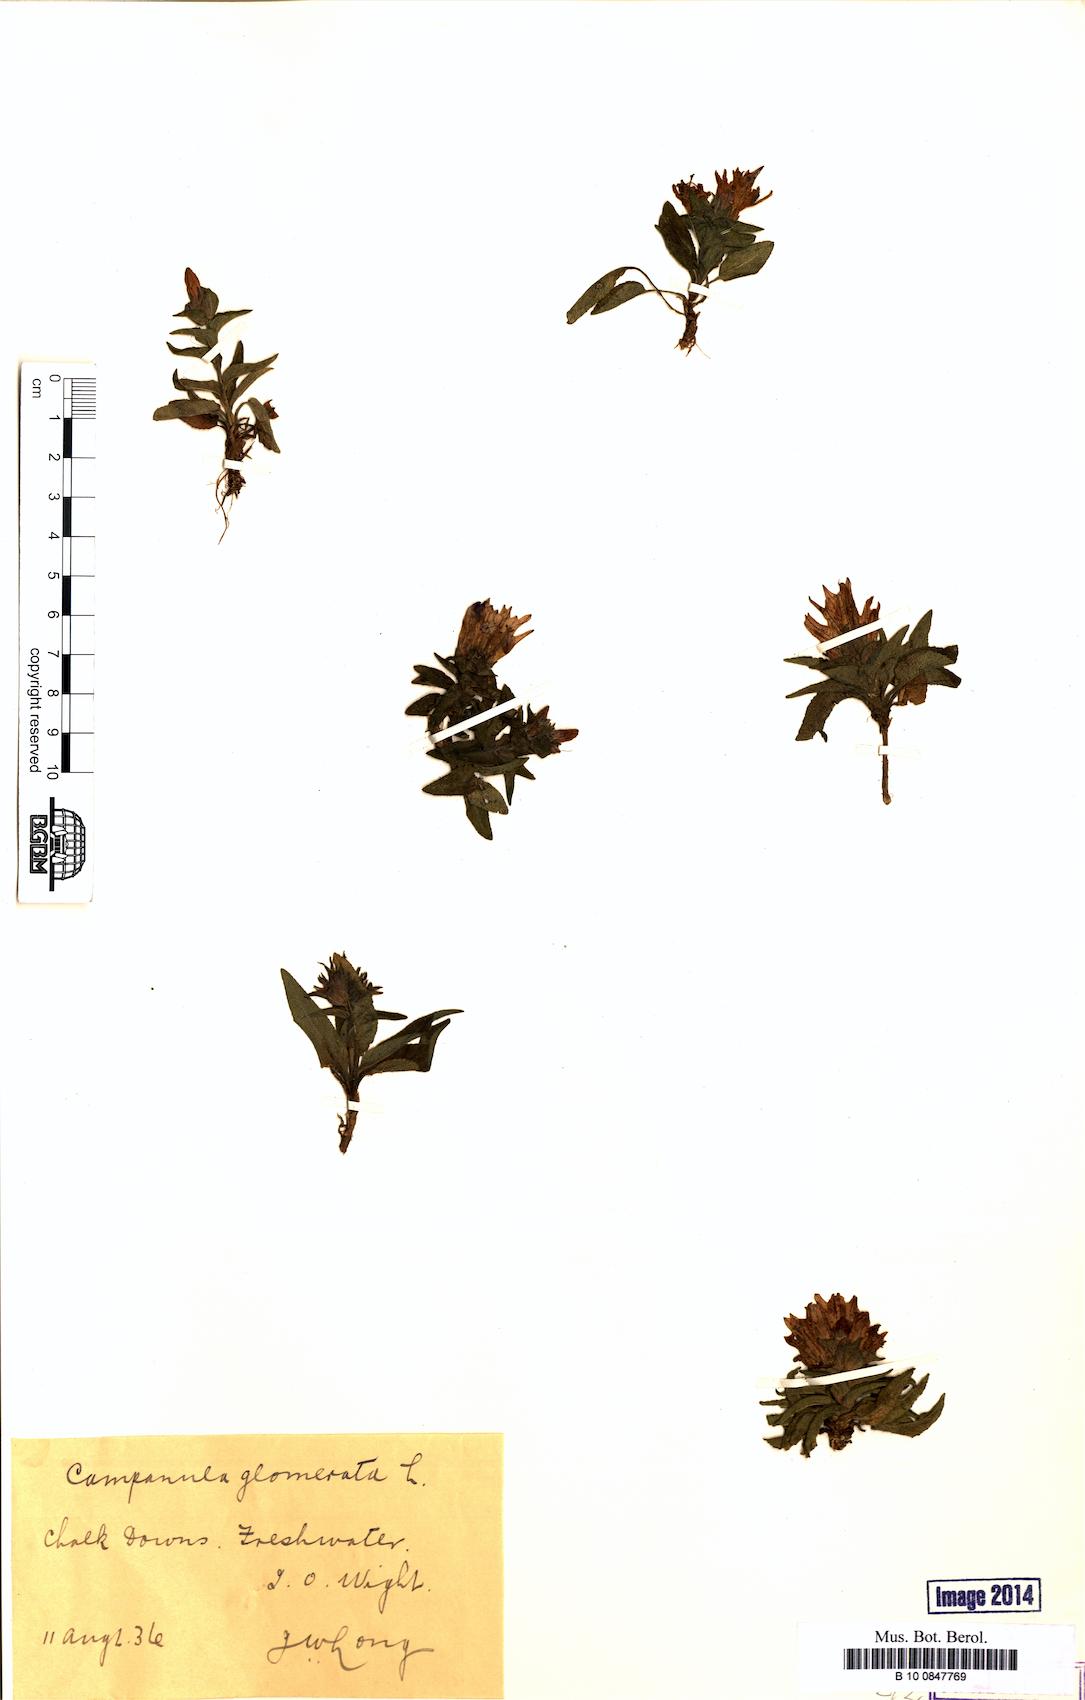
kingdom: Plantae
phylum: Tracheophyta
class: Magnoliopsida
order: Asterales
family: Campanulaceae
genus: Campanula
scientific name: Campanula glomerata
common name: Clustered bellflower
